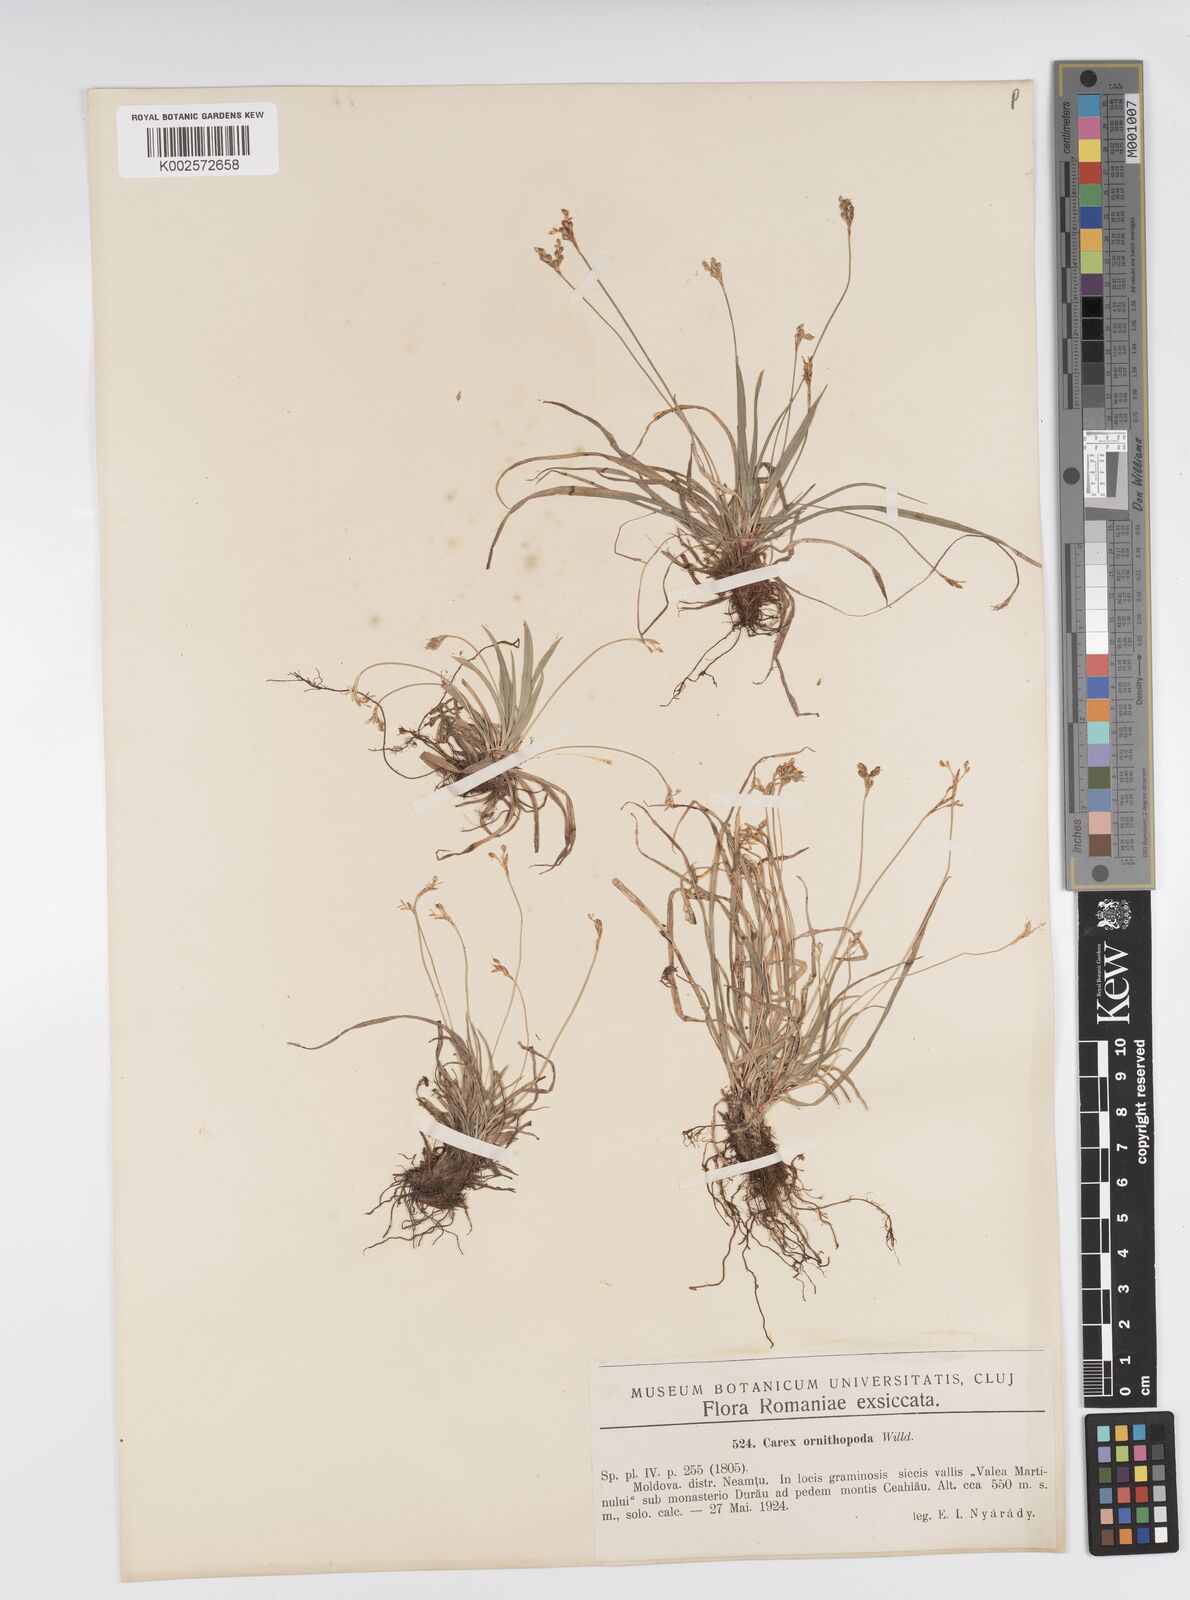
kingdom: Plantae
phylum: Tracheophyta
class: Liliopsida
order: Poales
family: Cyperaceae
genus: Carex
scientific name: Carex ornithopoda
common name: Bird's-foot sedge
